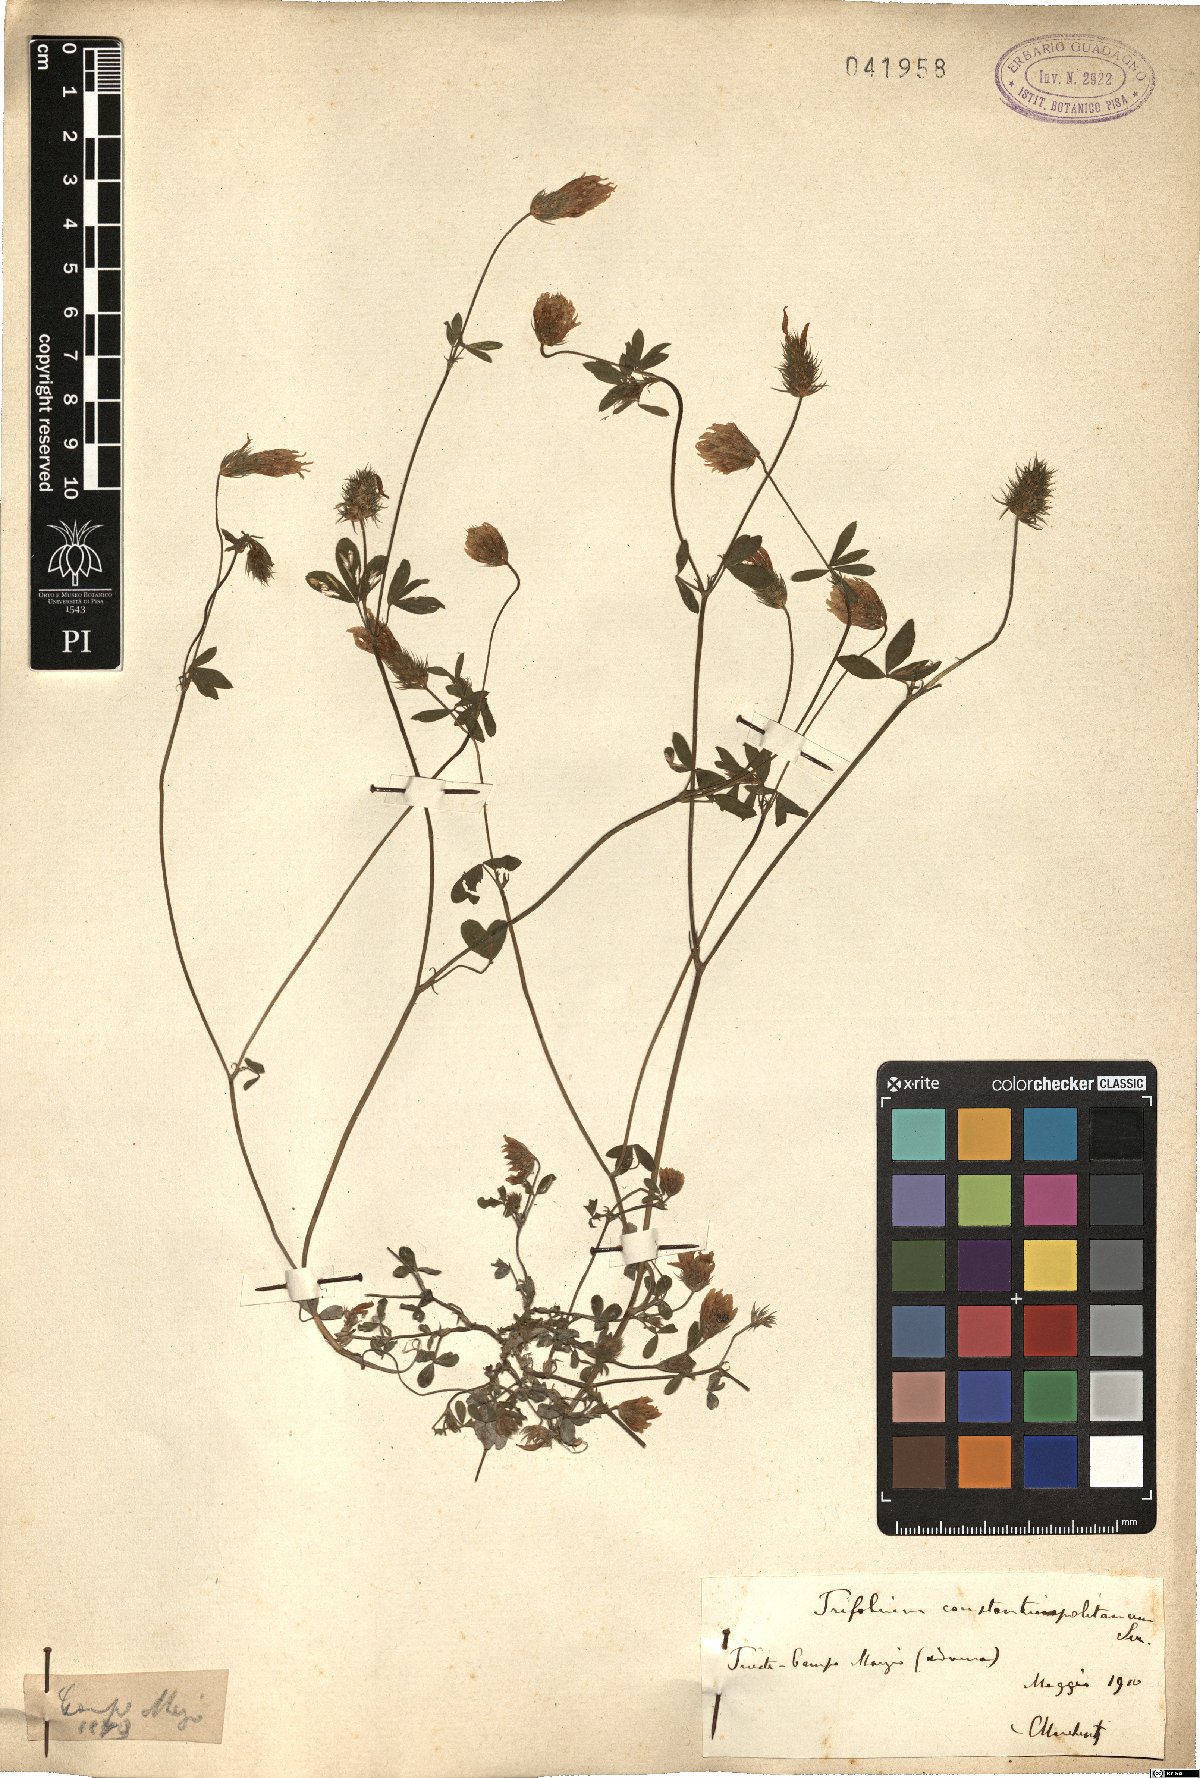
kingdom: Plantae
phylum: Tracheophyta
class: Magnoliopsida
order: Fabales
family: Fabaceae
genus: Trifolium
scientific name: Trifolium constantinopolitanum
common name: Constantinople clover
